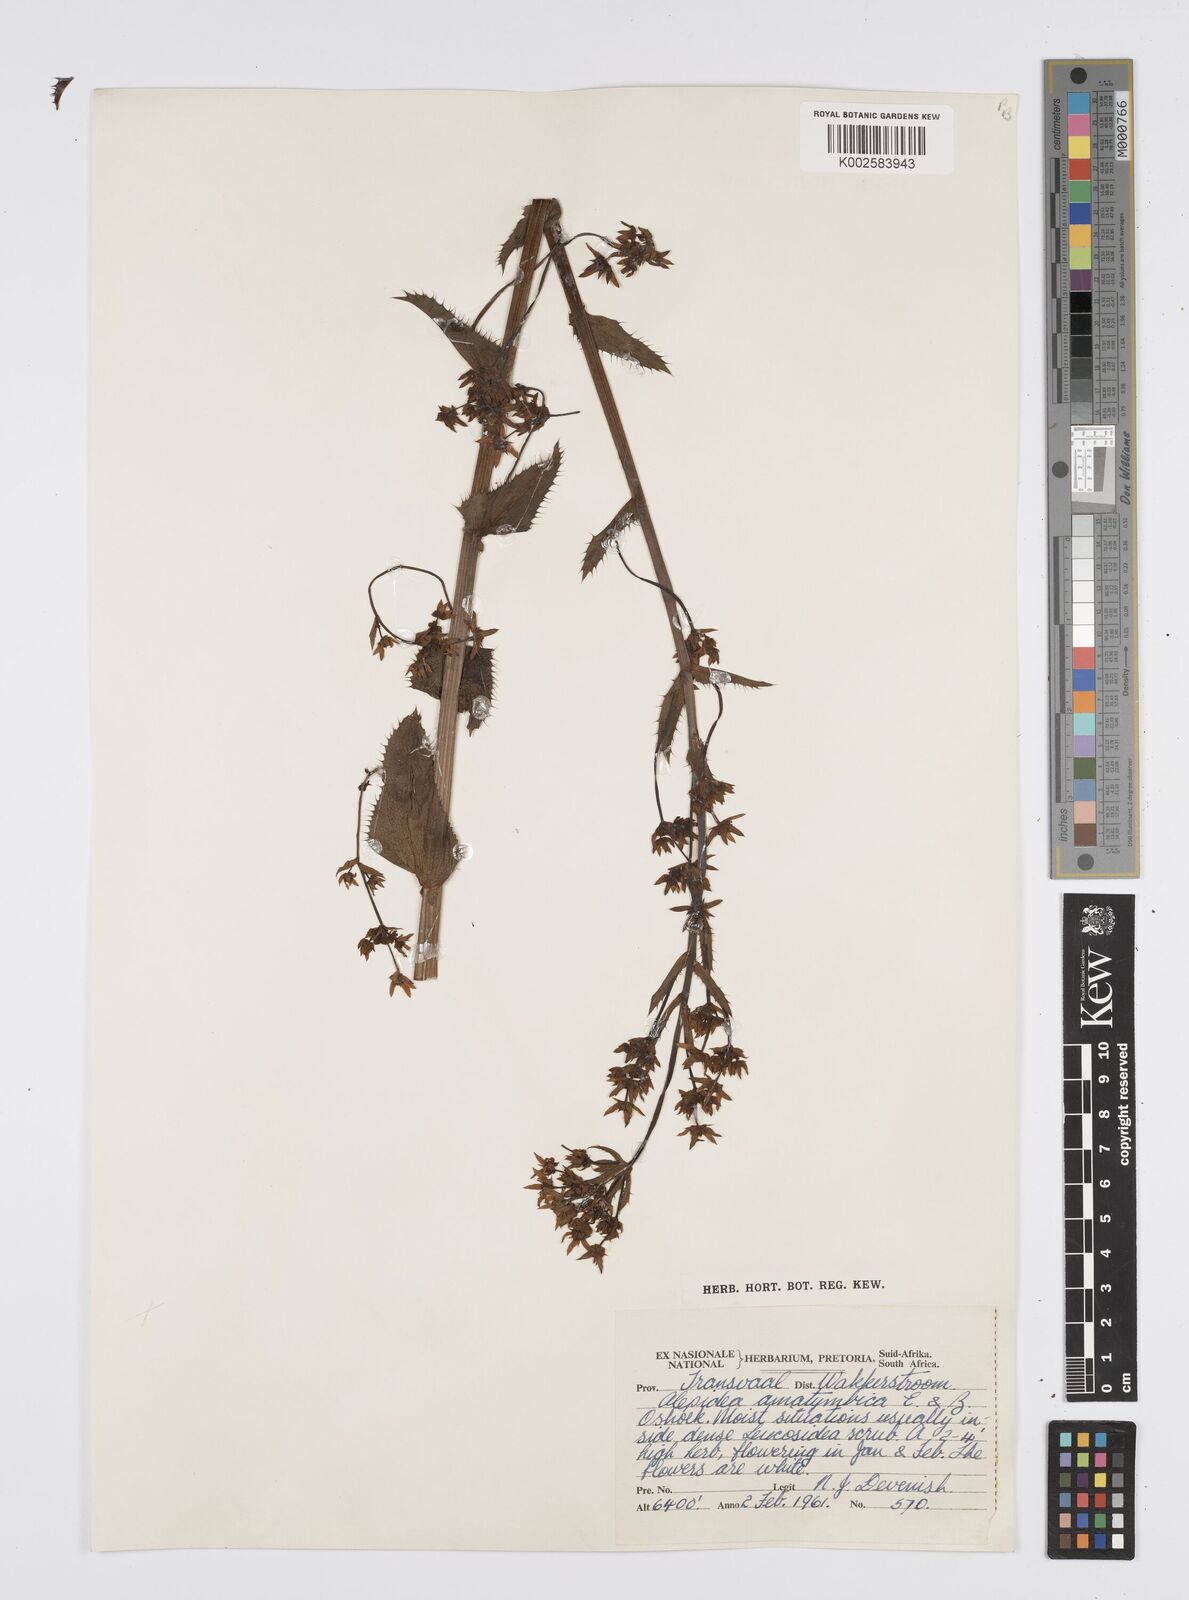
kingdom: Plantae
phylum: Tracheophyta
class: Magnoliopsida
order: Apiales
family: Apiaceae
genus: Alepidea
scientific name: Alepidea amatymbica
